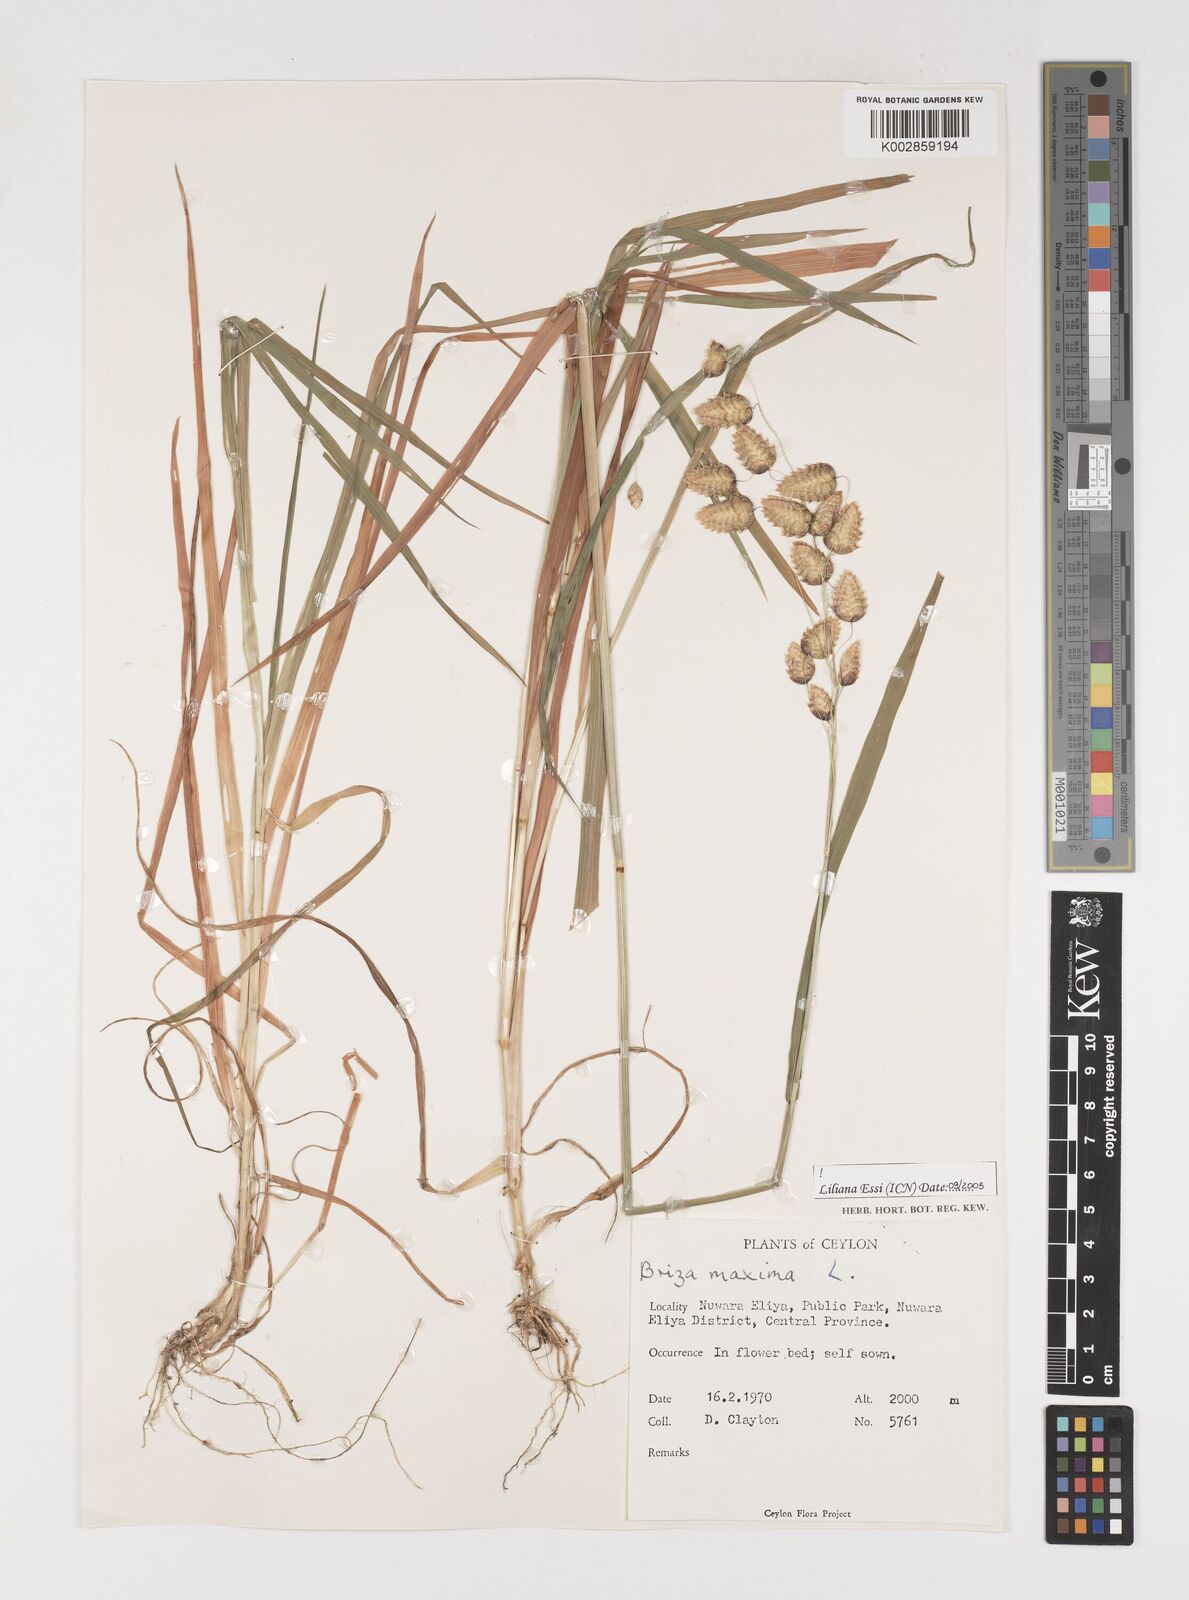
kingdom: Plantae
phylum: Tracheophyta
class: Liliopsida
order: Poales
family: Poaceae
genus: Briza
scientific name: Briza maxima
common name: Big quakinggrass
